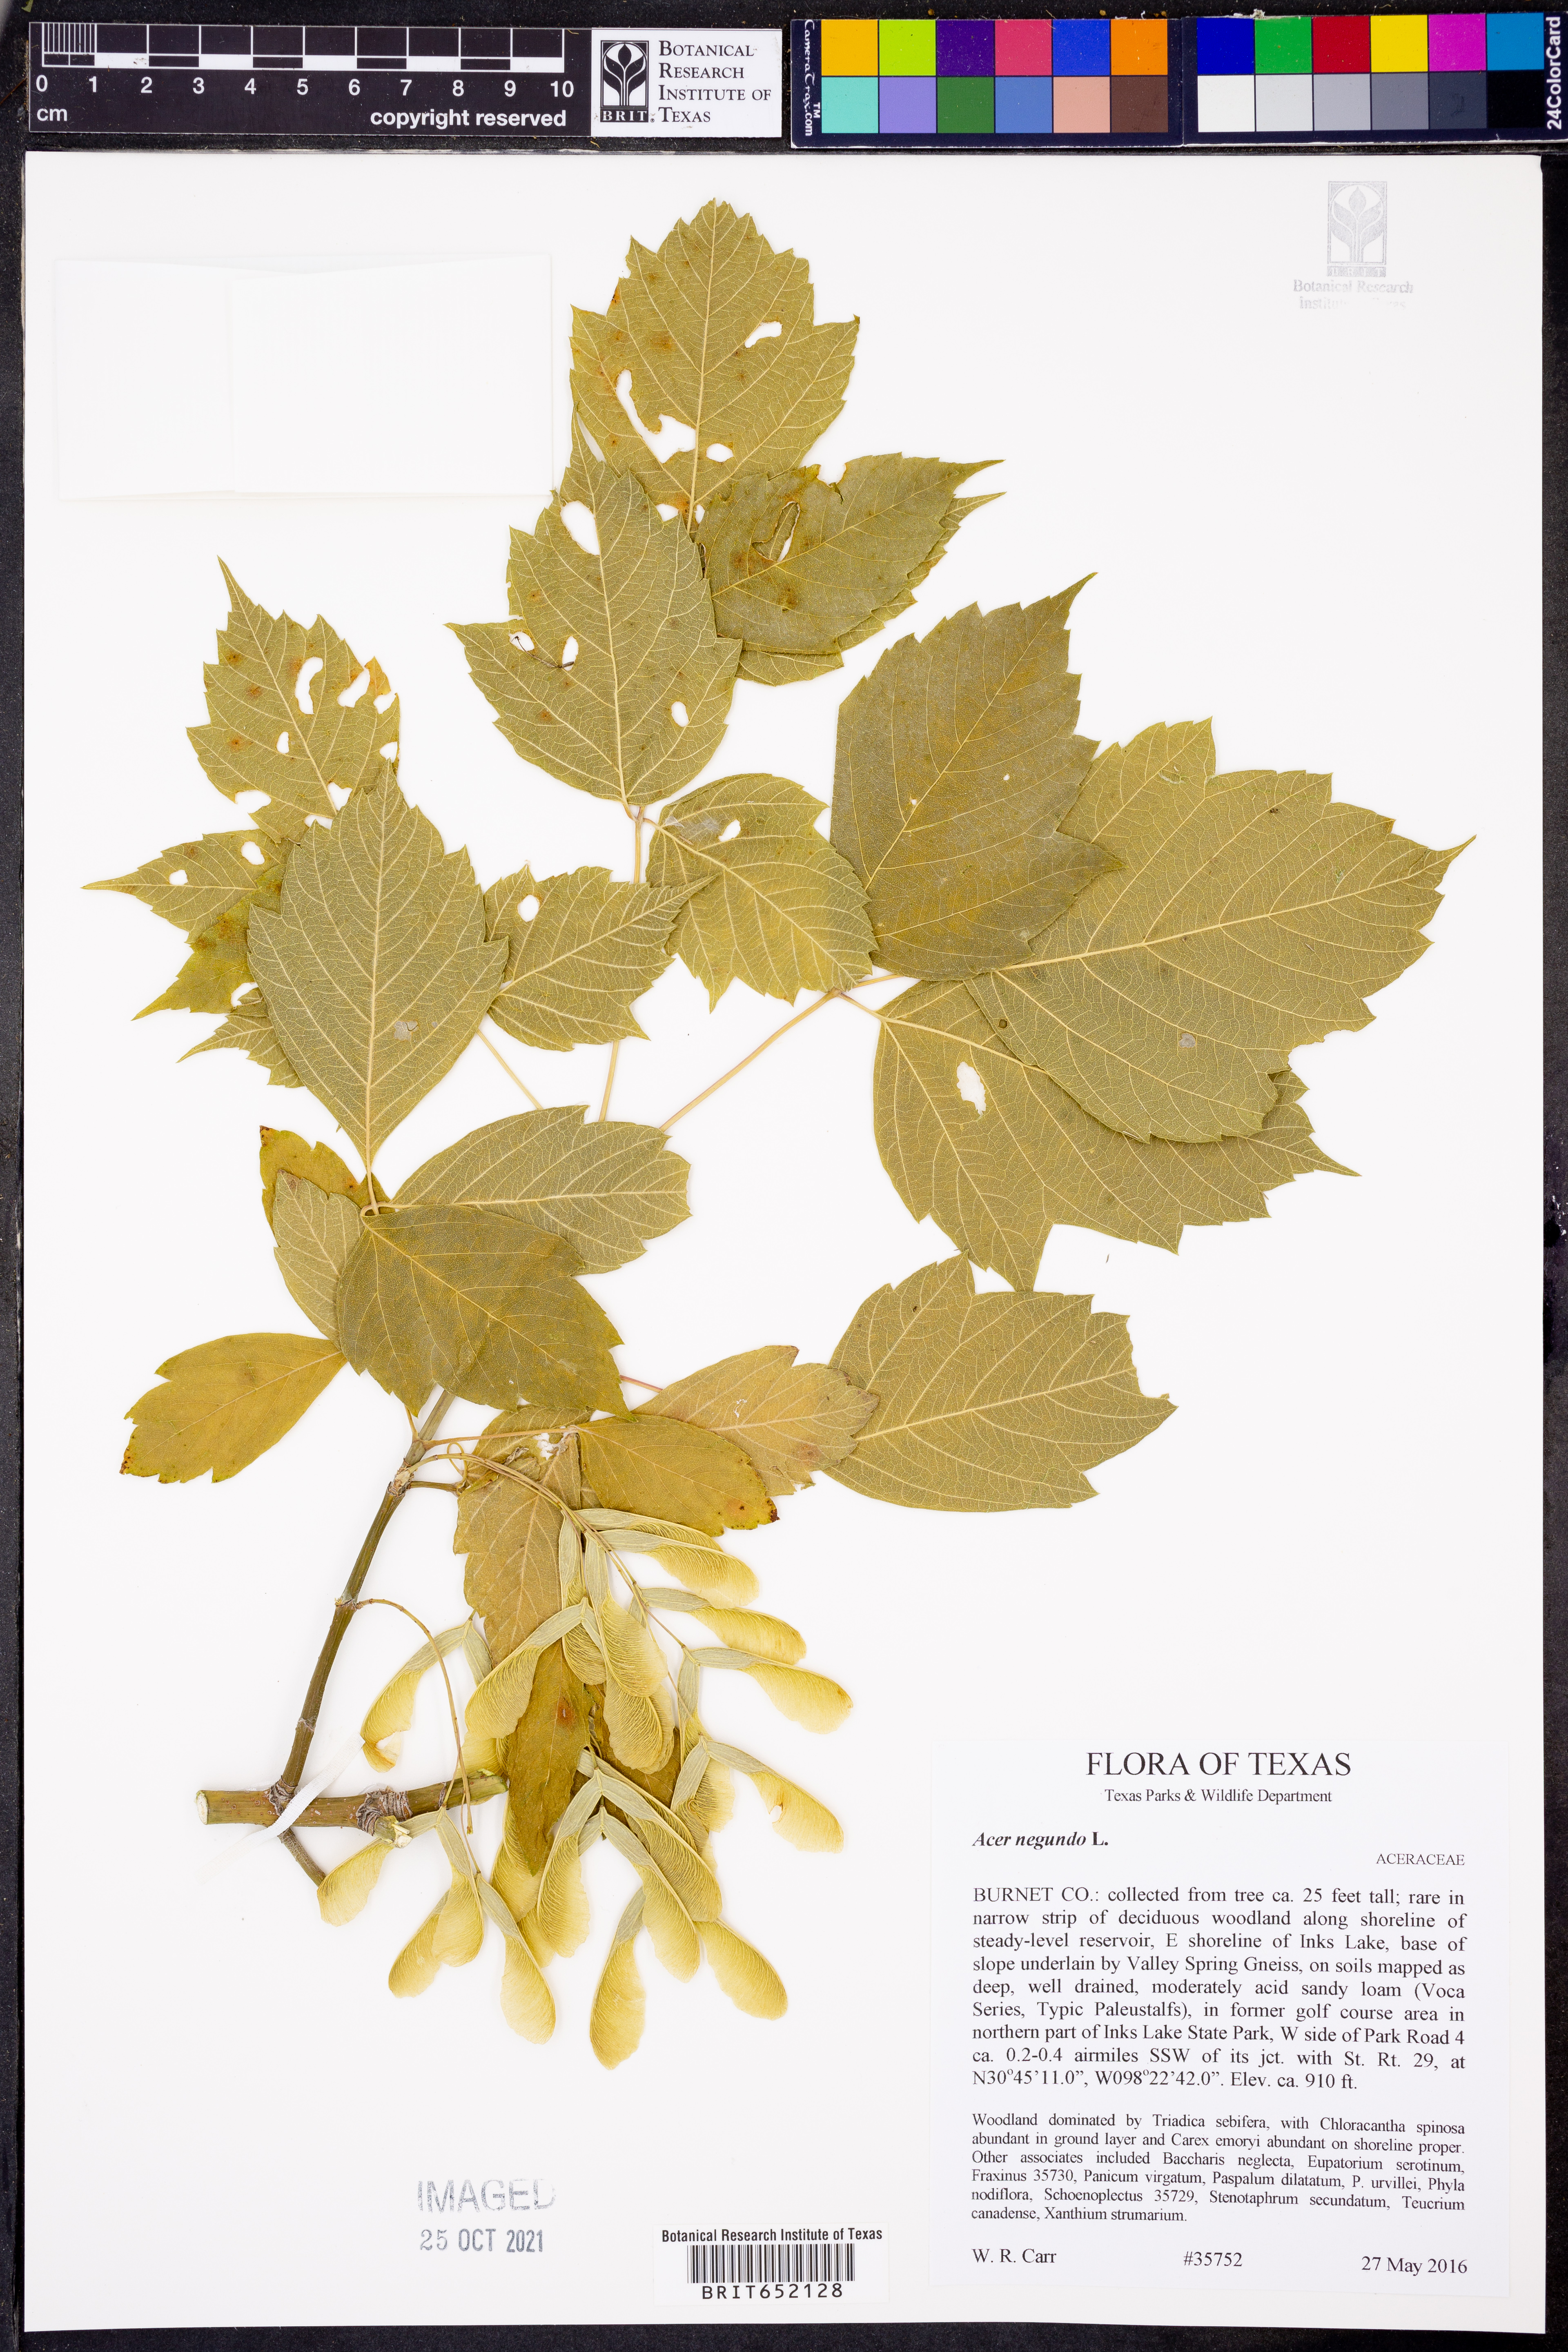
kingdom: Plantae
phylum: Tracheophyta
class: Magnoliopsida
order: Sapindales
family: Sapindaceae
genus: Acer
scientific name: Acer negundo
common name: Ashleaf maple
